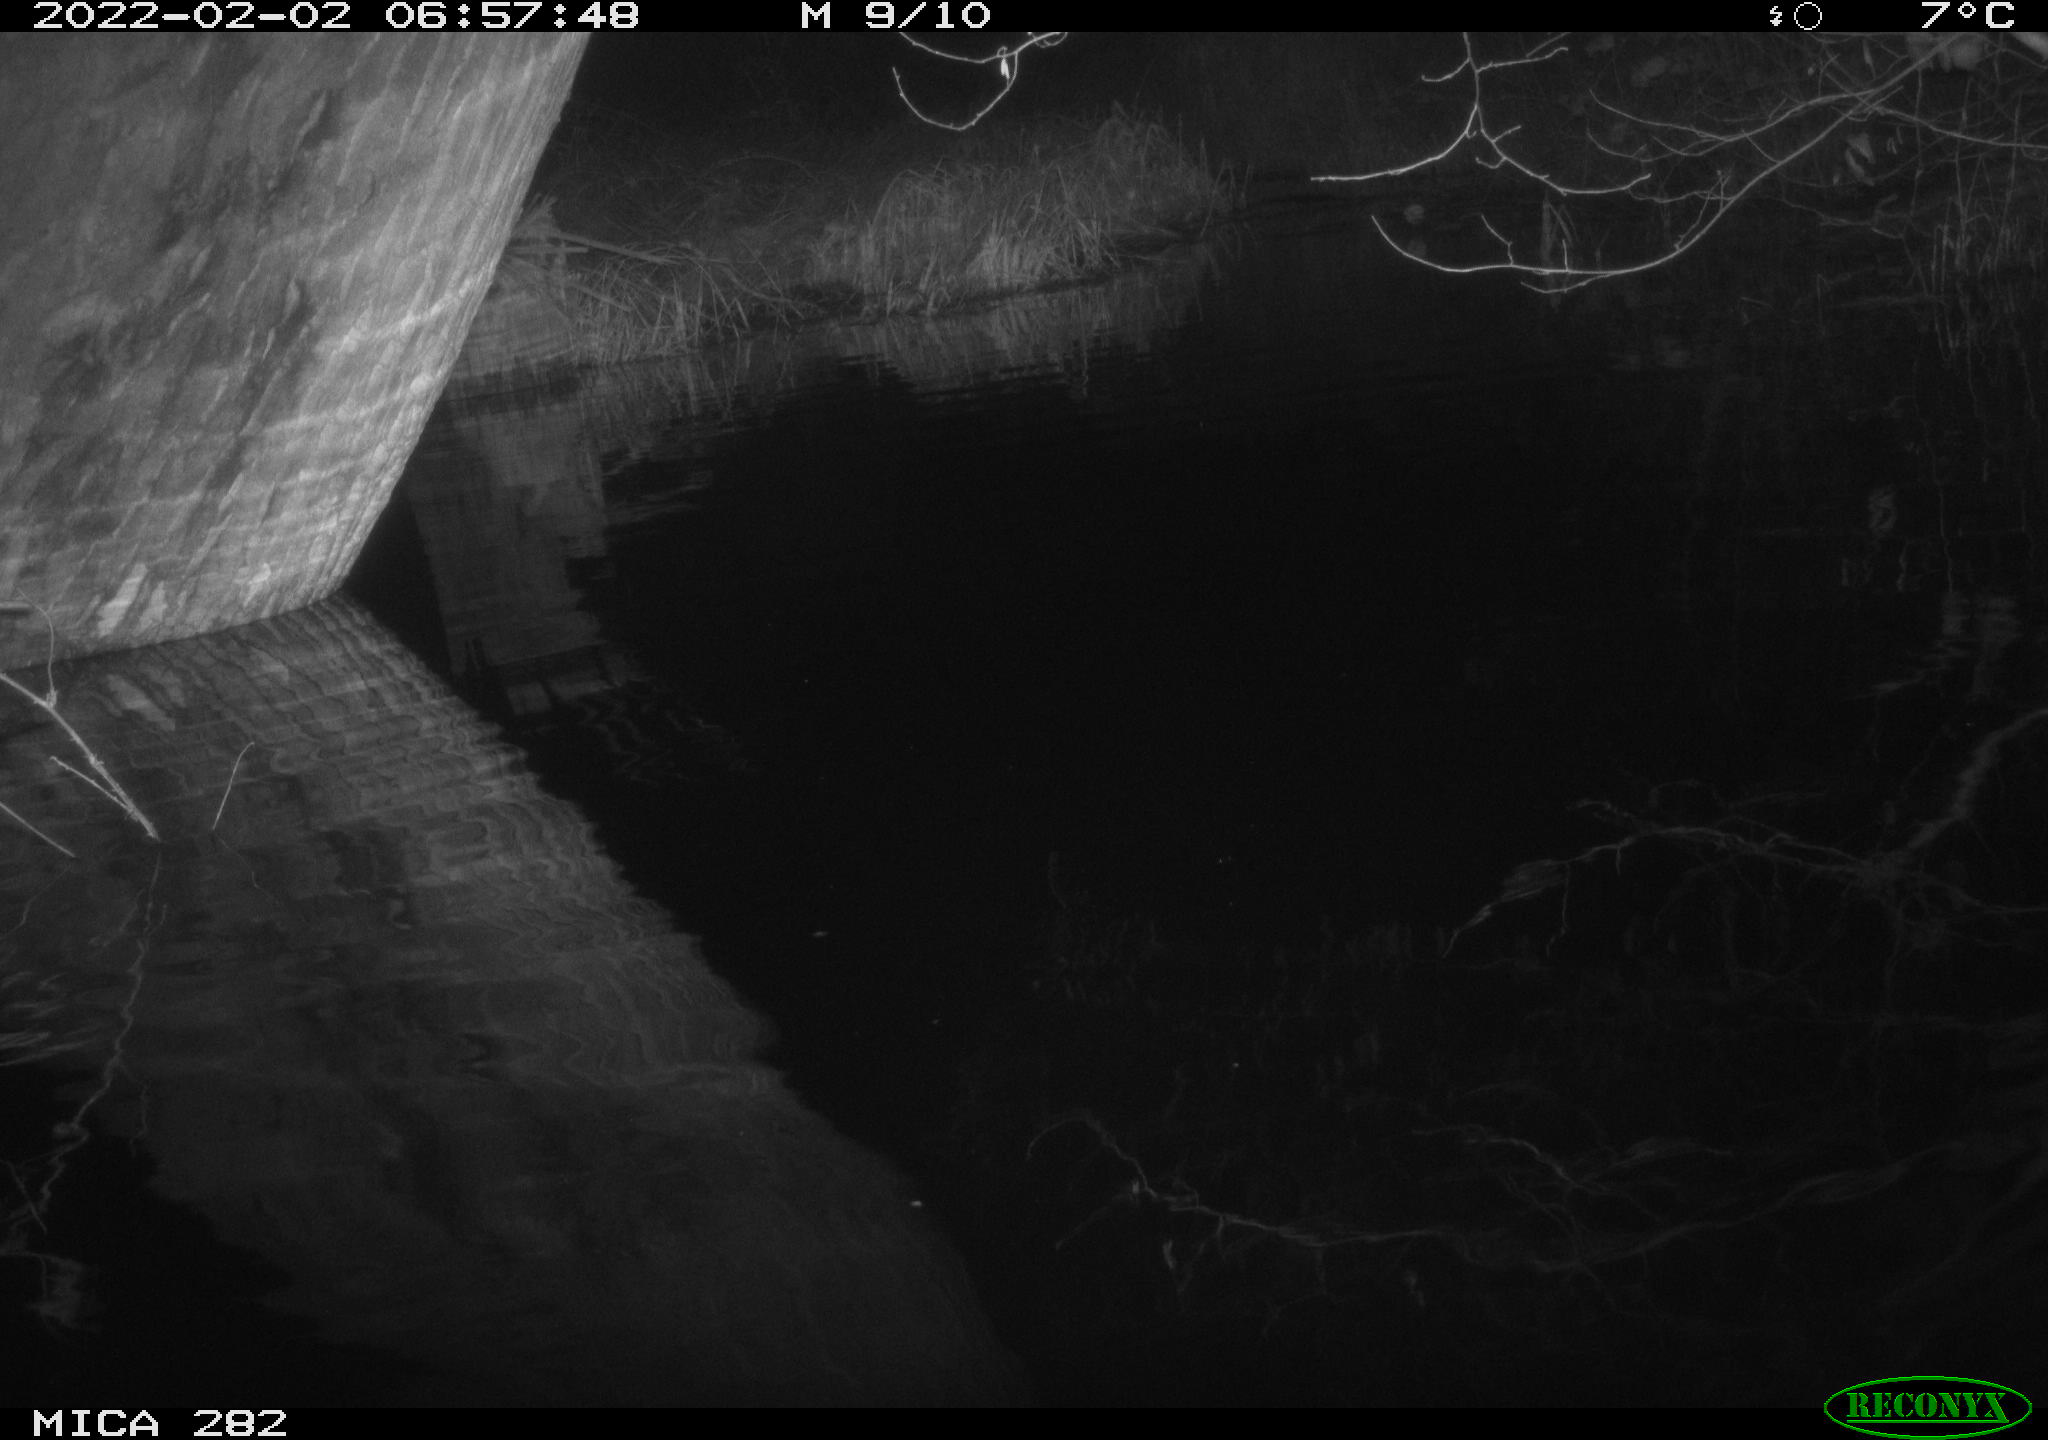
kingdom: Animalia
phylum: Chordata
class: Aves
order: Anseriformes
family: Anatidae
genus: Anas
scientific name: Anas platyrhynchos
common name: Mallard
